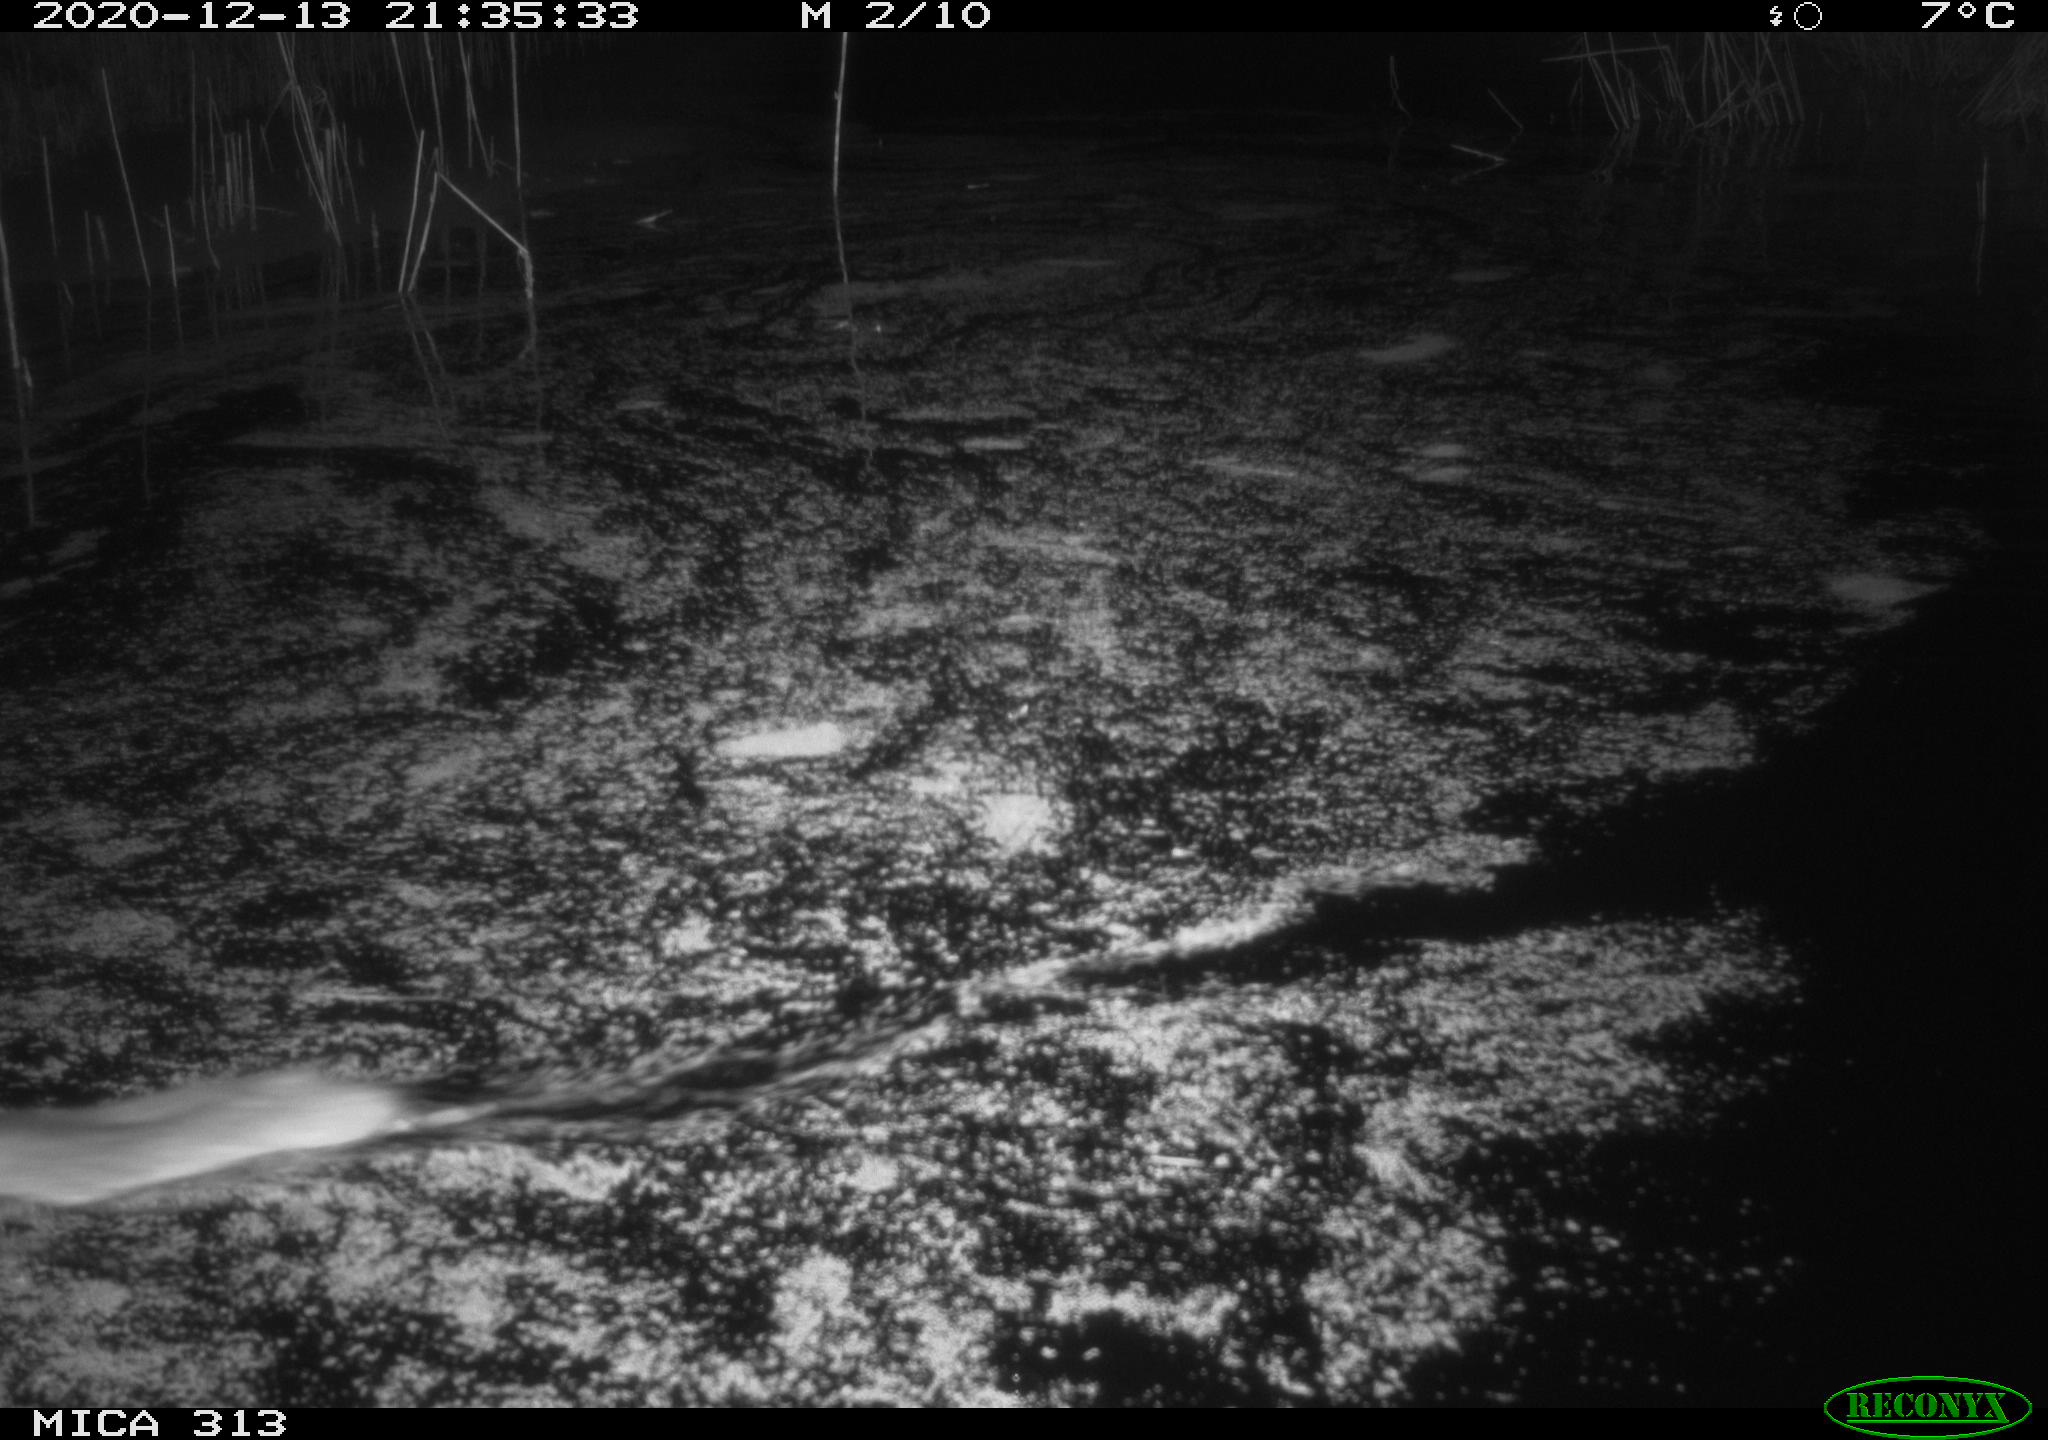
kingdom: Animalia
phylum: Chordata
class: Mammalia
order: Rodentia
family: Muridae
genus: Rattus
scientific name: Rattus norvegicus
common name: Brown rat
